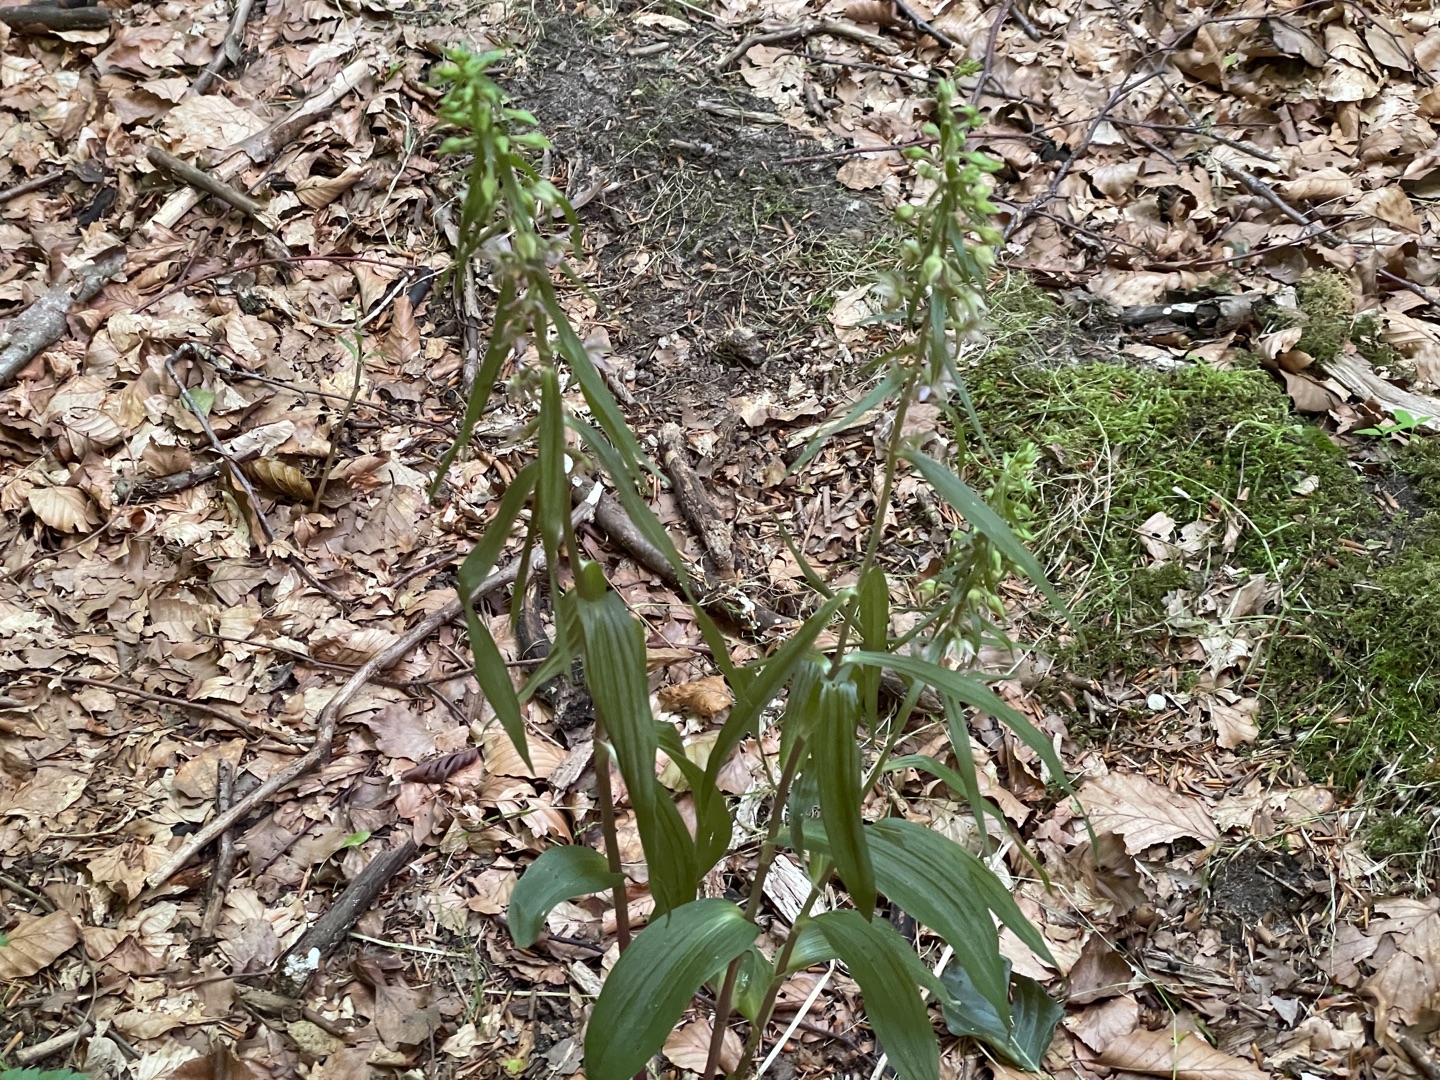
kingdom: Plantae
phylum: Tracheophyta
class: Liliopsida
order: Asparagales
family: Orchidaceae
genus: Epipactis
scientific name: Epipactis helleborine
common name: Skov-hullæbe
